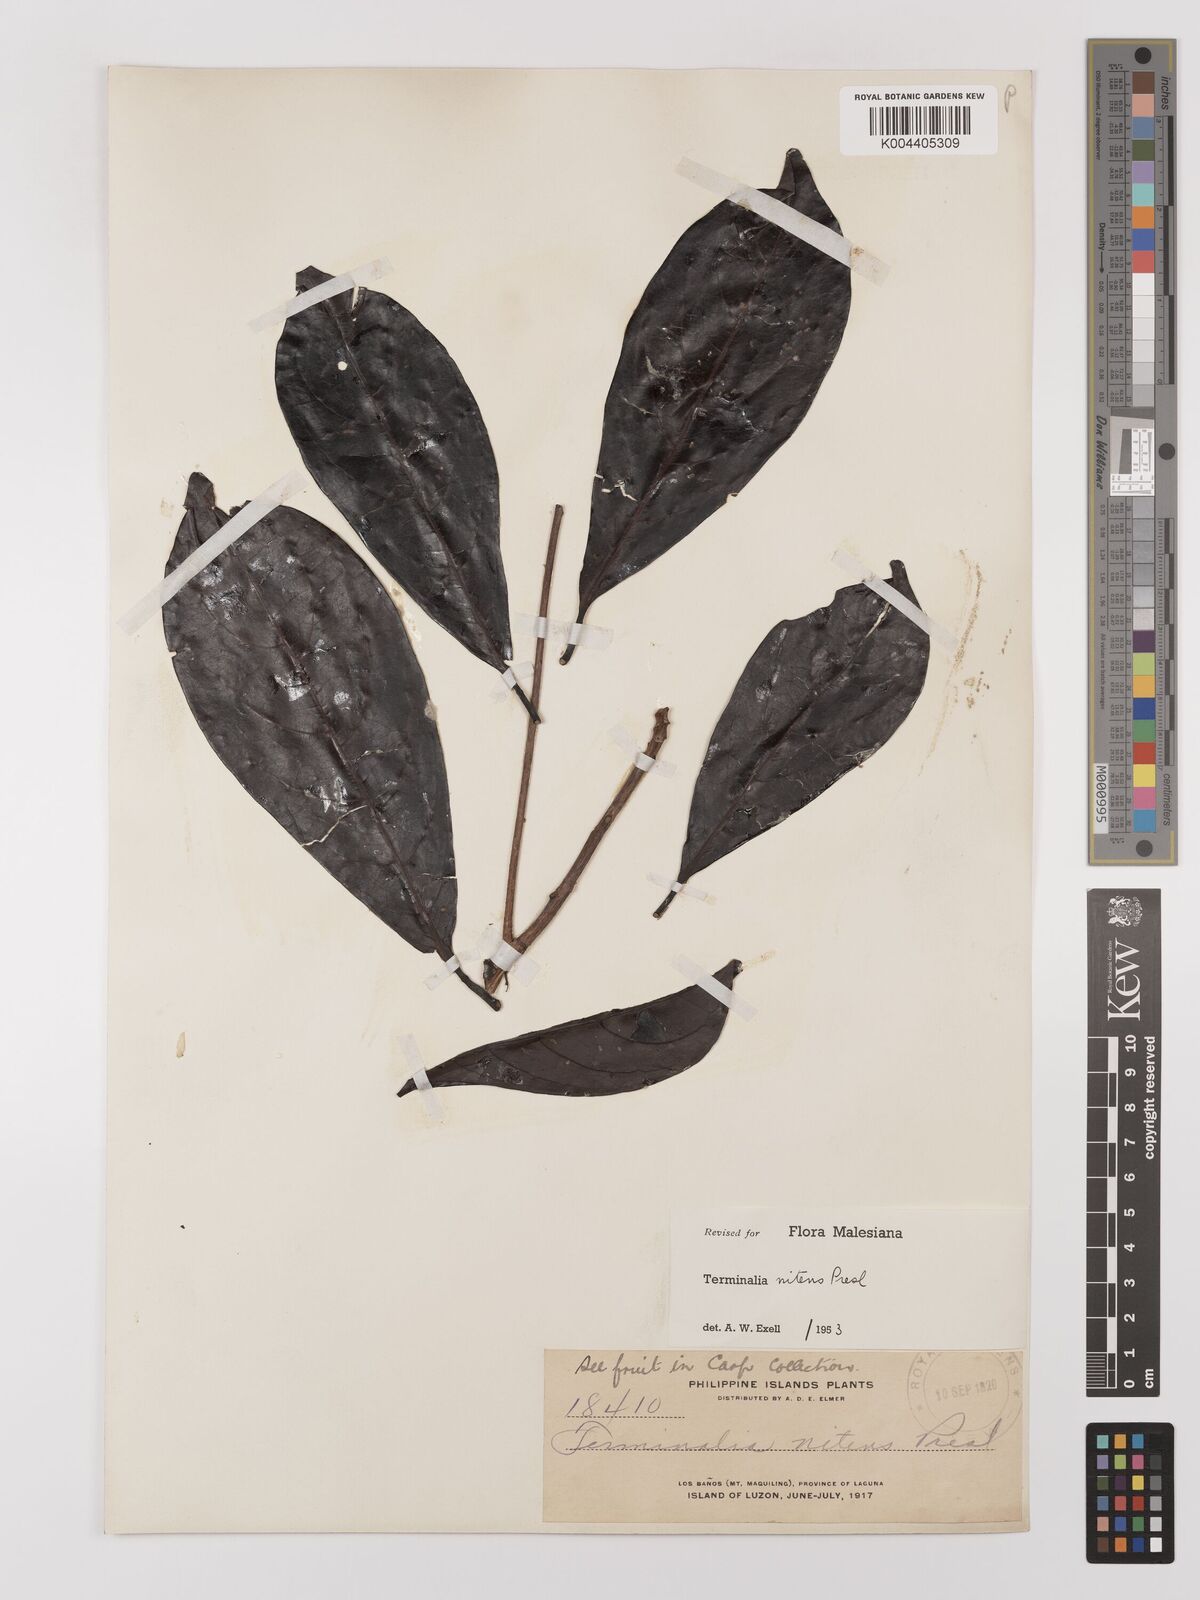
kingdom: Plantae
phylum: Tracheophyta
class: Magnoliopsida
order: Myrtales
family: Combretaceae
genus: Terminalia
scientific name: Terminalia nitens
